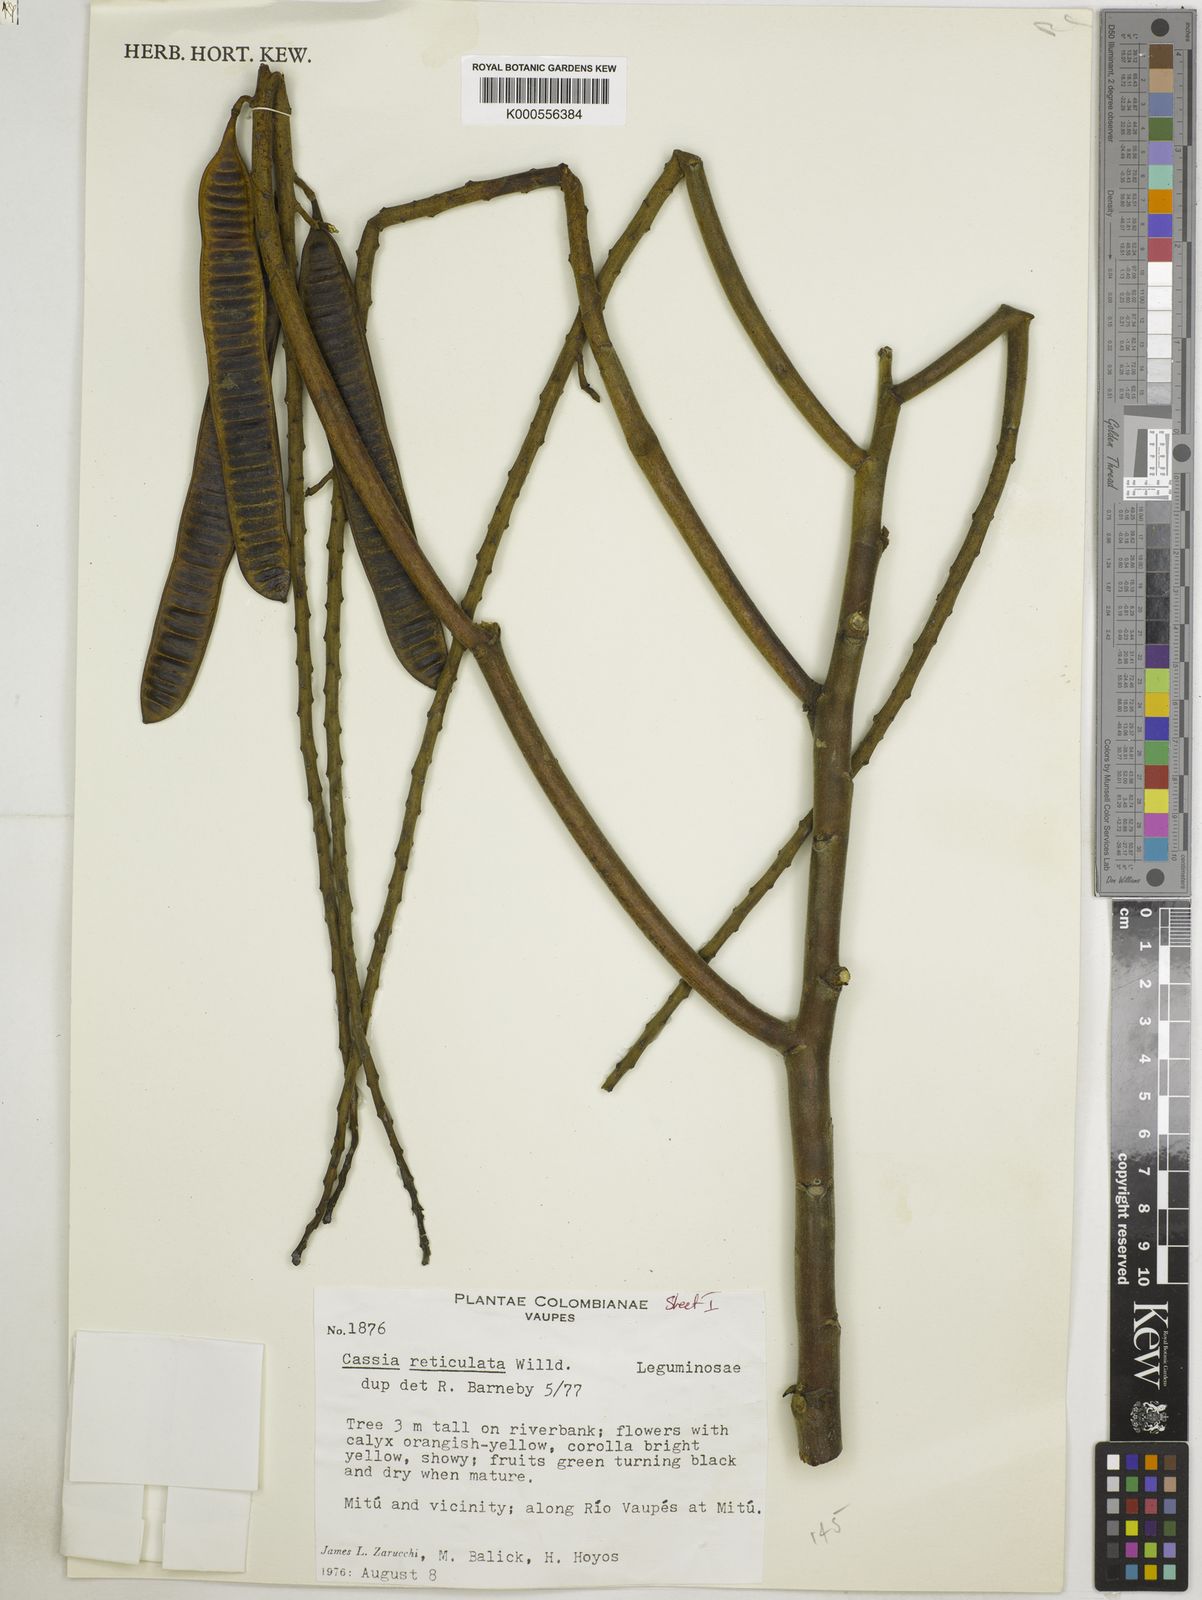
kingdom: Plantae
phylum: Tracheophyta
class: Magnoliopsida
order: Fabales
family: Fabaceae
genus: Senna
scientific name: Senna reticulata
